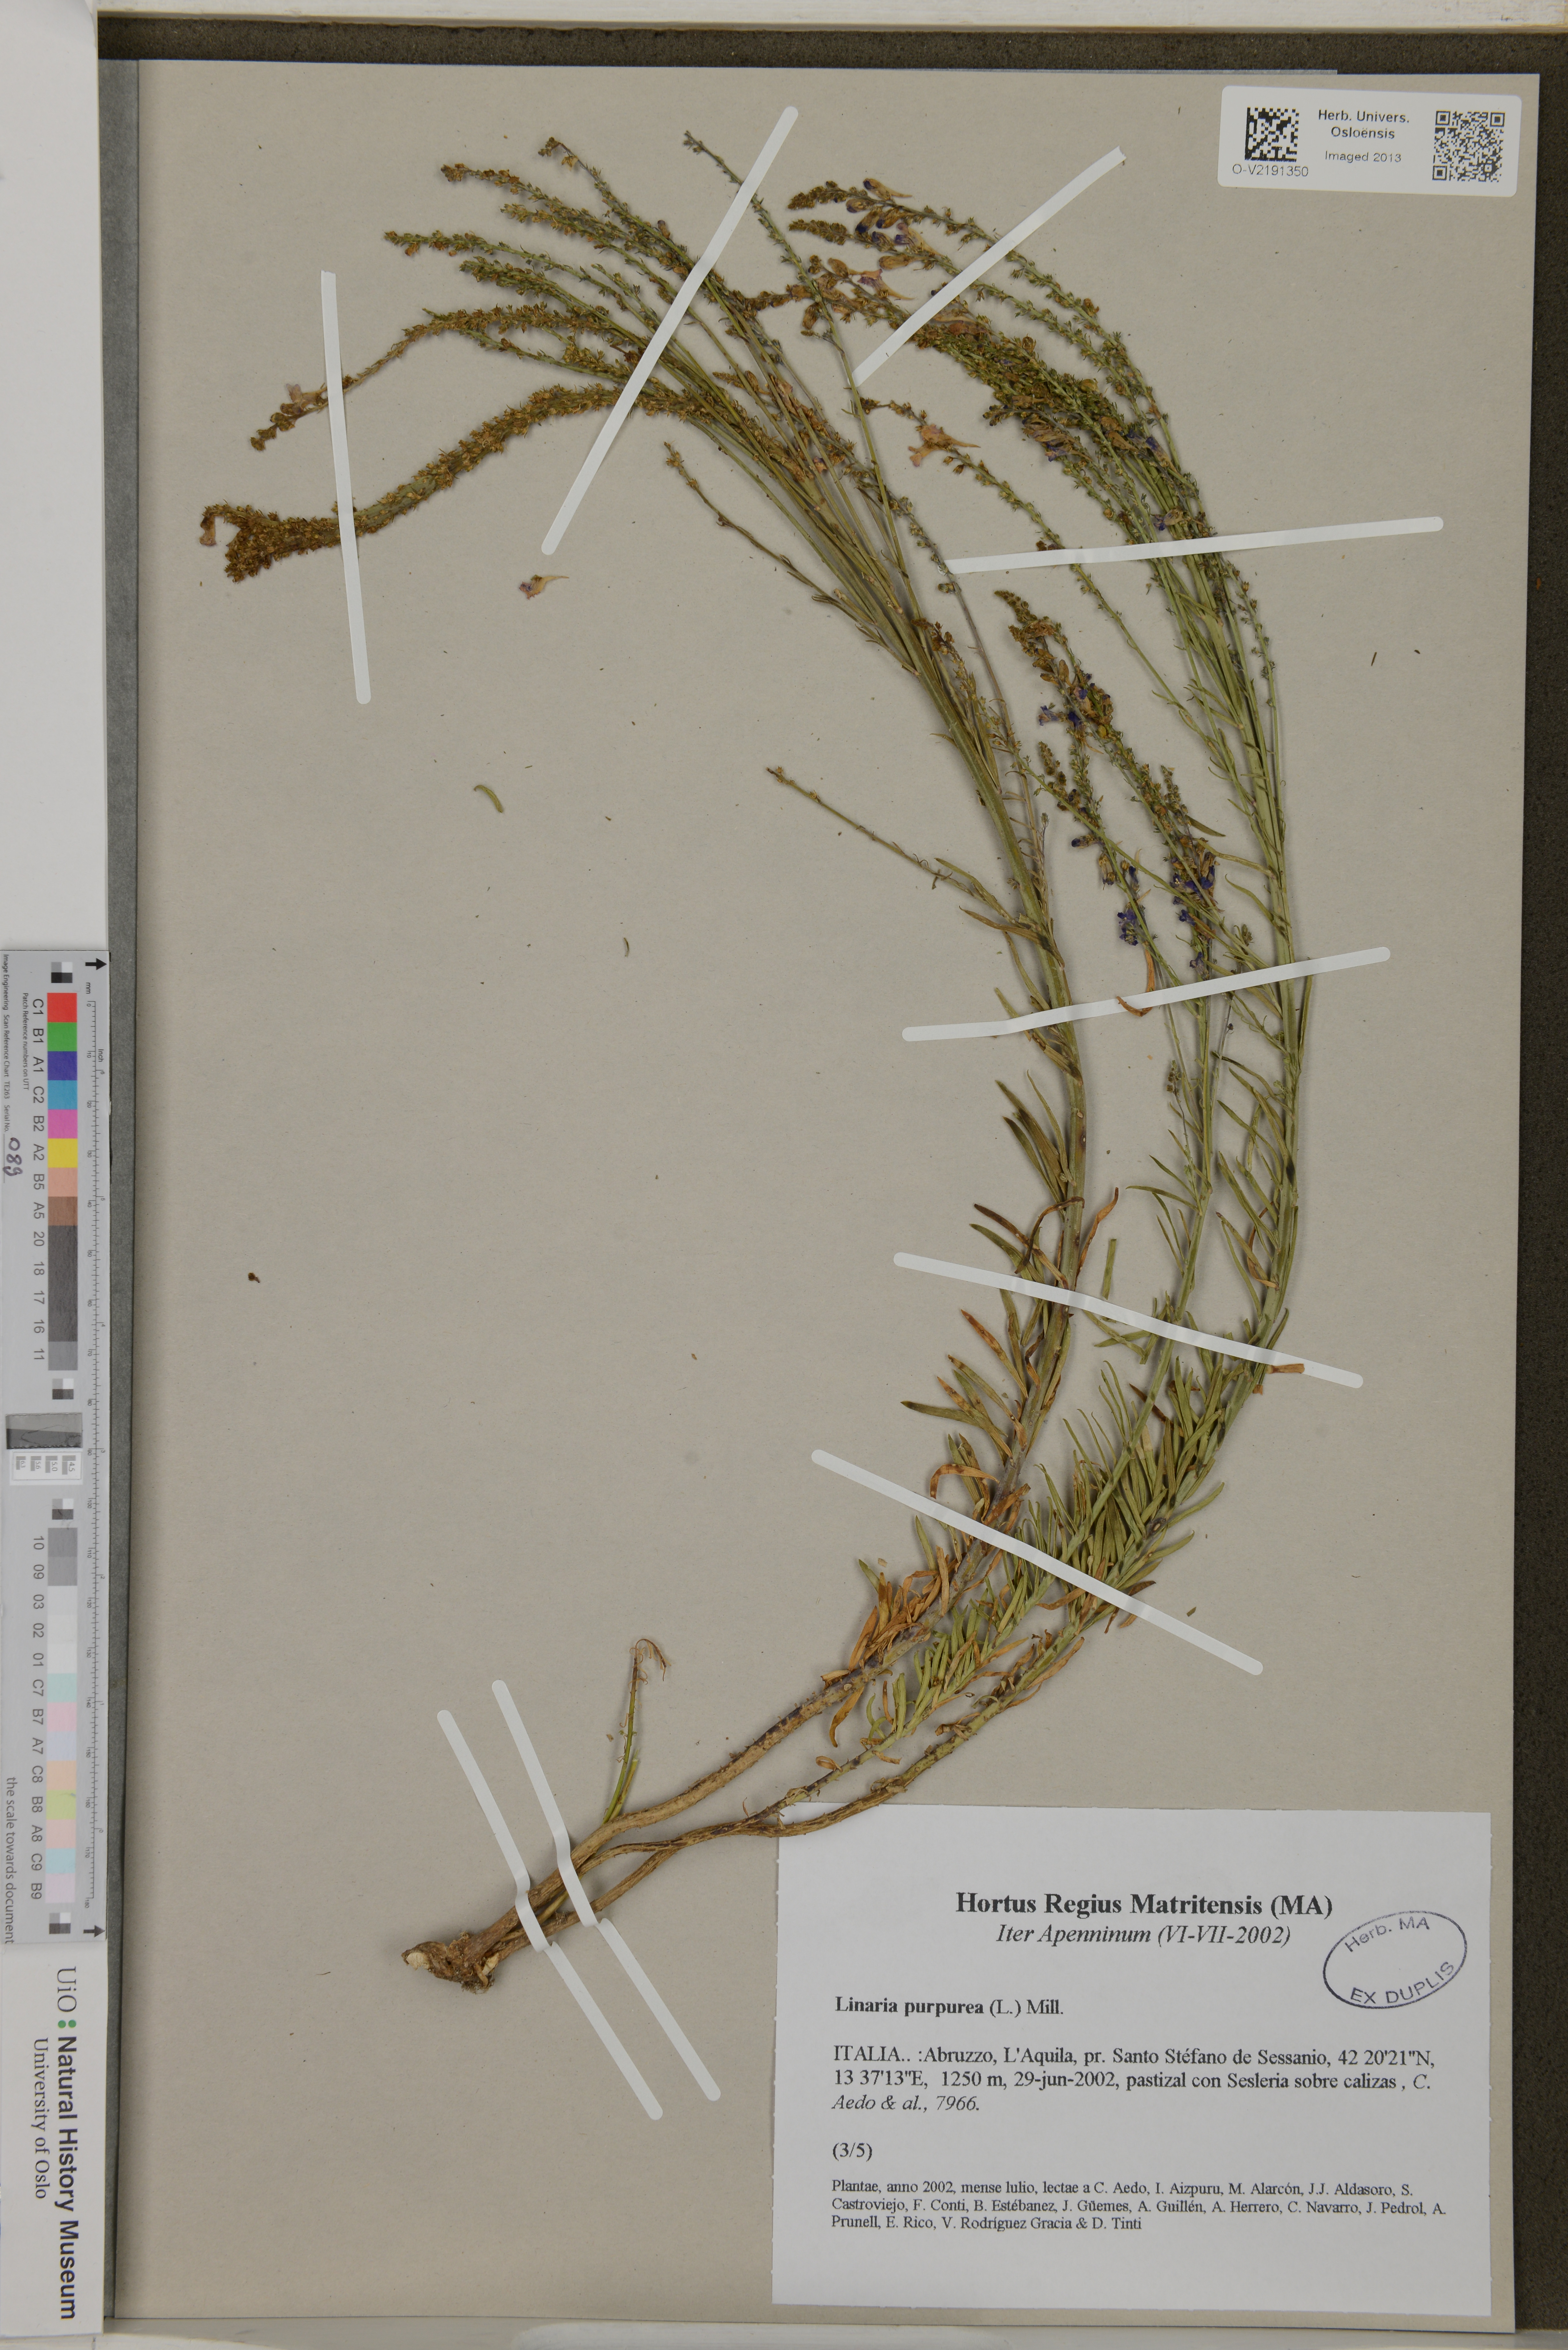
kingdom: Plantae
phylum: Tracheophyta
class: Magnoliopsida
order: Lamiales
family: Plantaginaceae
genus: Linaria
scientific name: Linaria purpurea
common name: Purple toadflax
